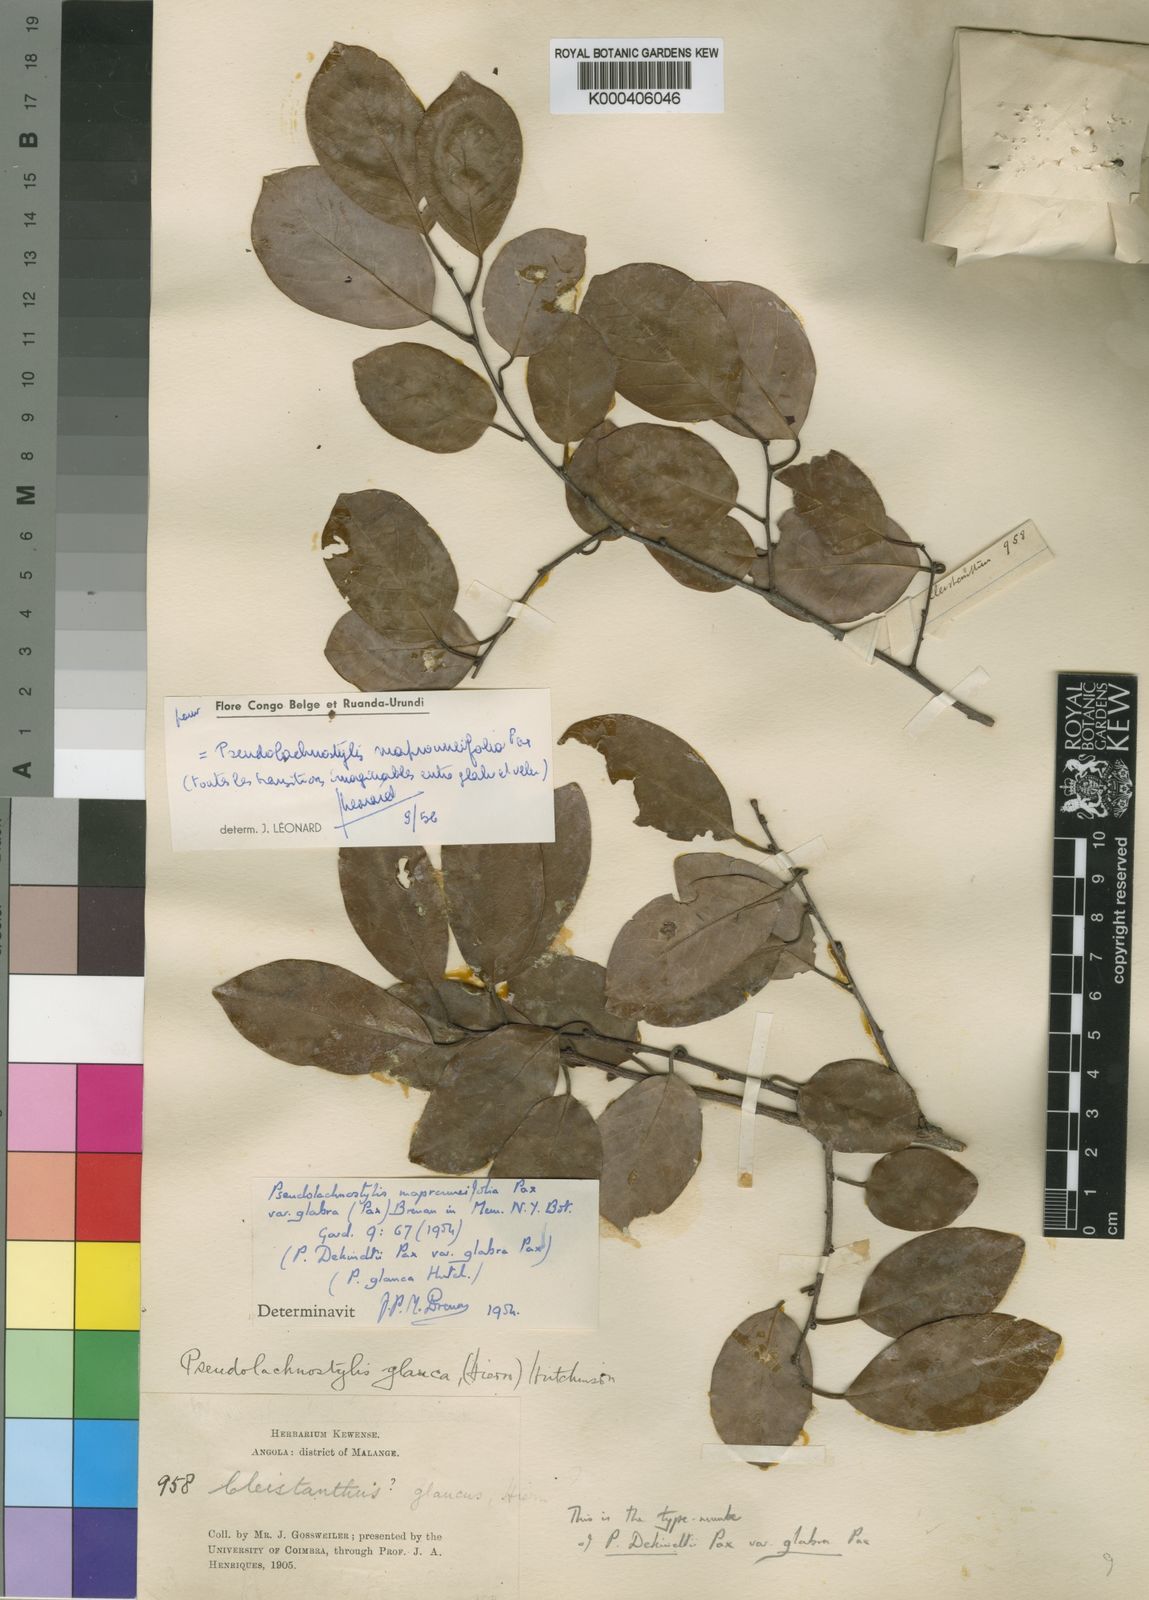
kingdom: Plantae
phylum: Tracheophyta
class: Magnoliopsida
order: Malpighiales
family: Phyllanthaceae
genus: Pseudolachnostylis
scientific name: Pseudolachnostylis maprouneifolia
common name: Kudu berry
